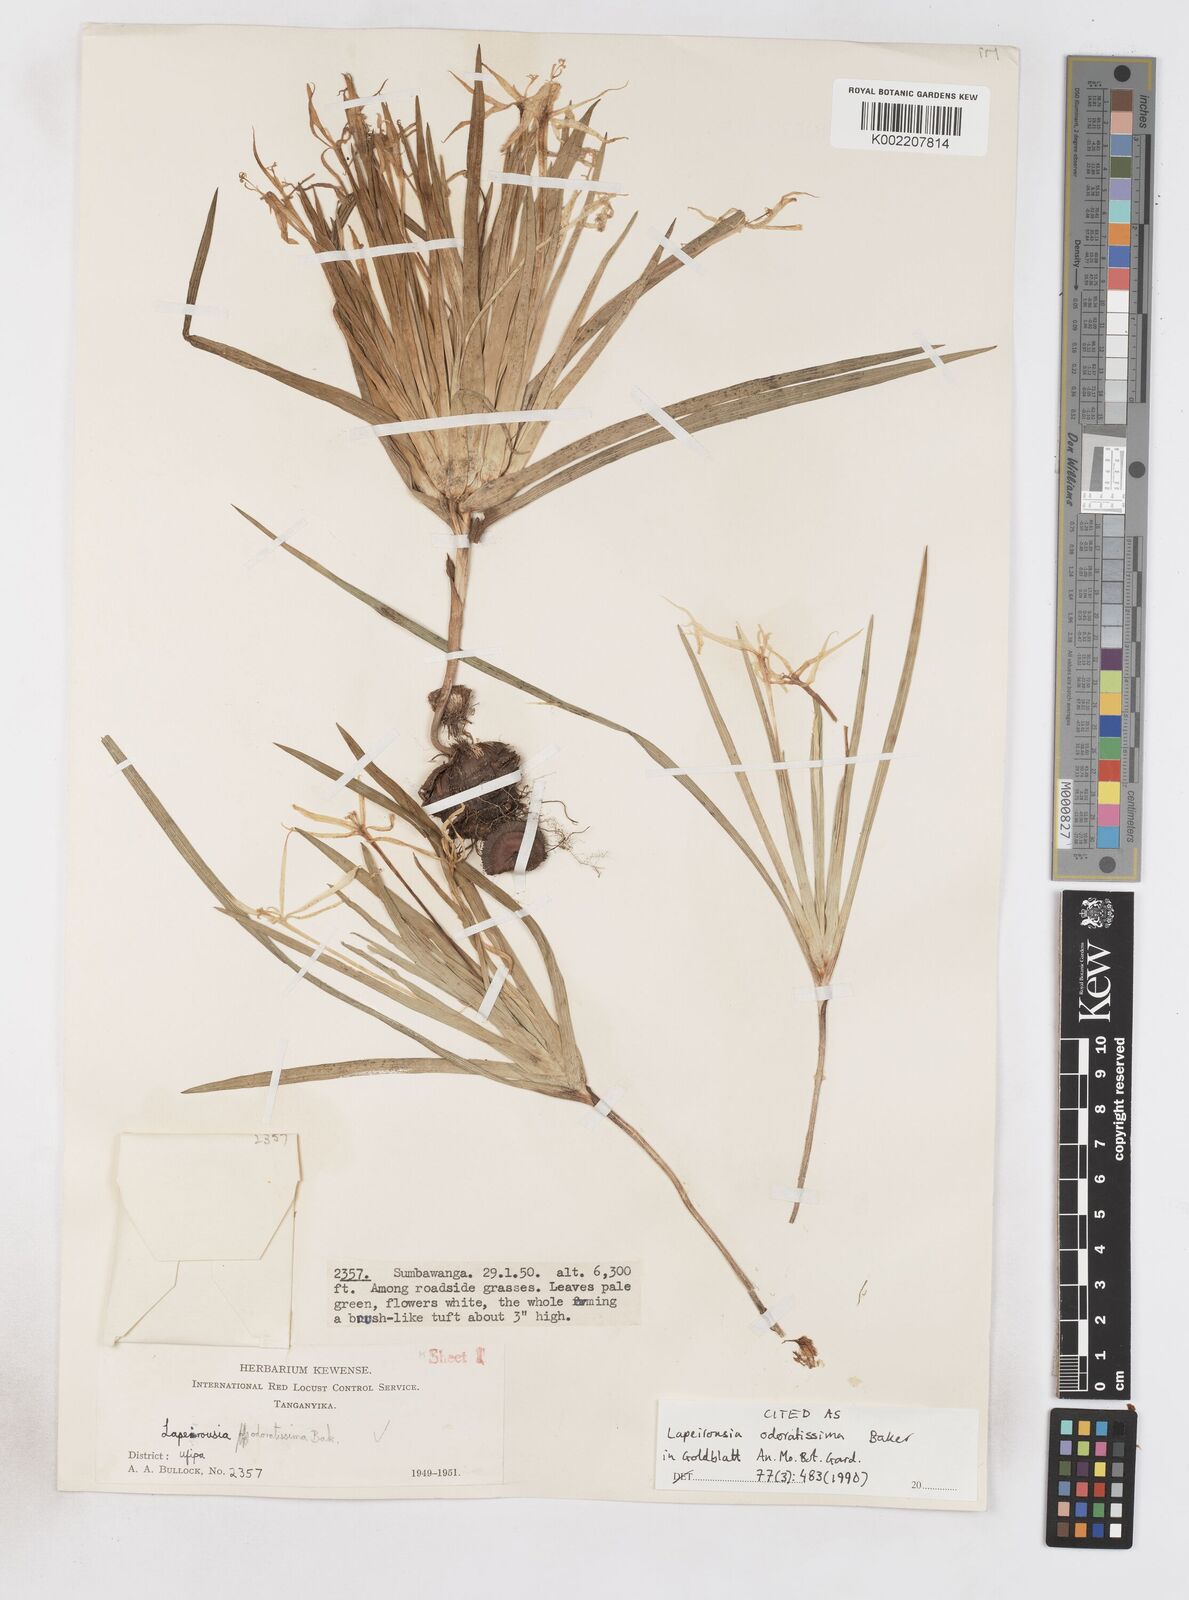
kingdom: Plantae
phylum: Tracheophyta
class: Liliopsida
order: Asparagales
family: Iridaceae
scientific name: Iridaceae
